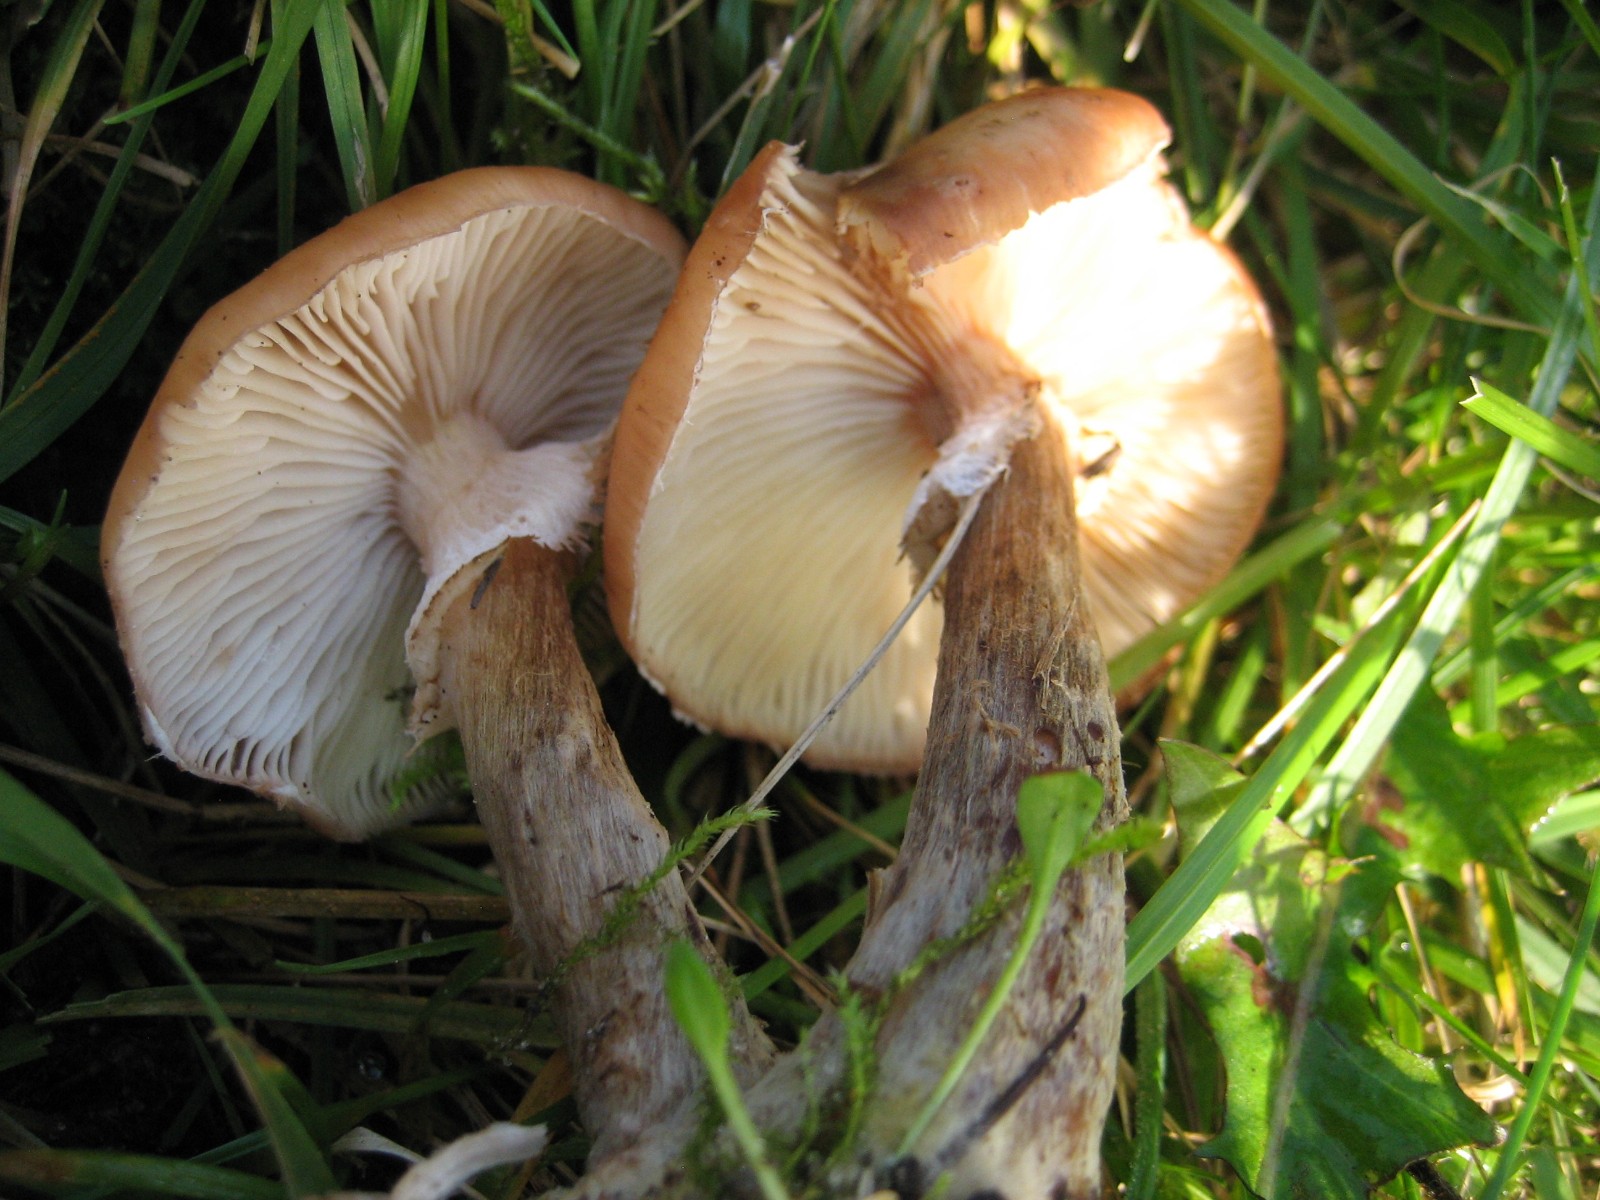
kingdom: Fungi
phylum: Basidiomycota
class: Agaricomycetes
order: Agaricales
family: Physalacriaceae
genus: Armillaria
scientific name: Armillaria
